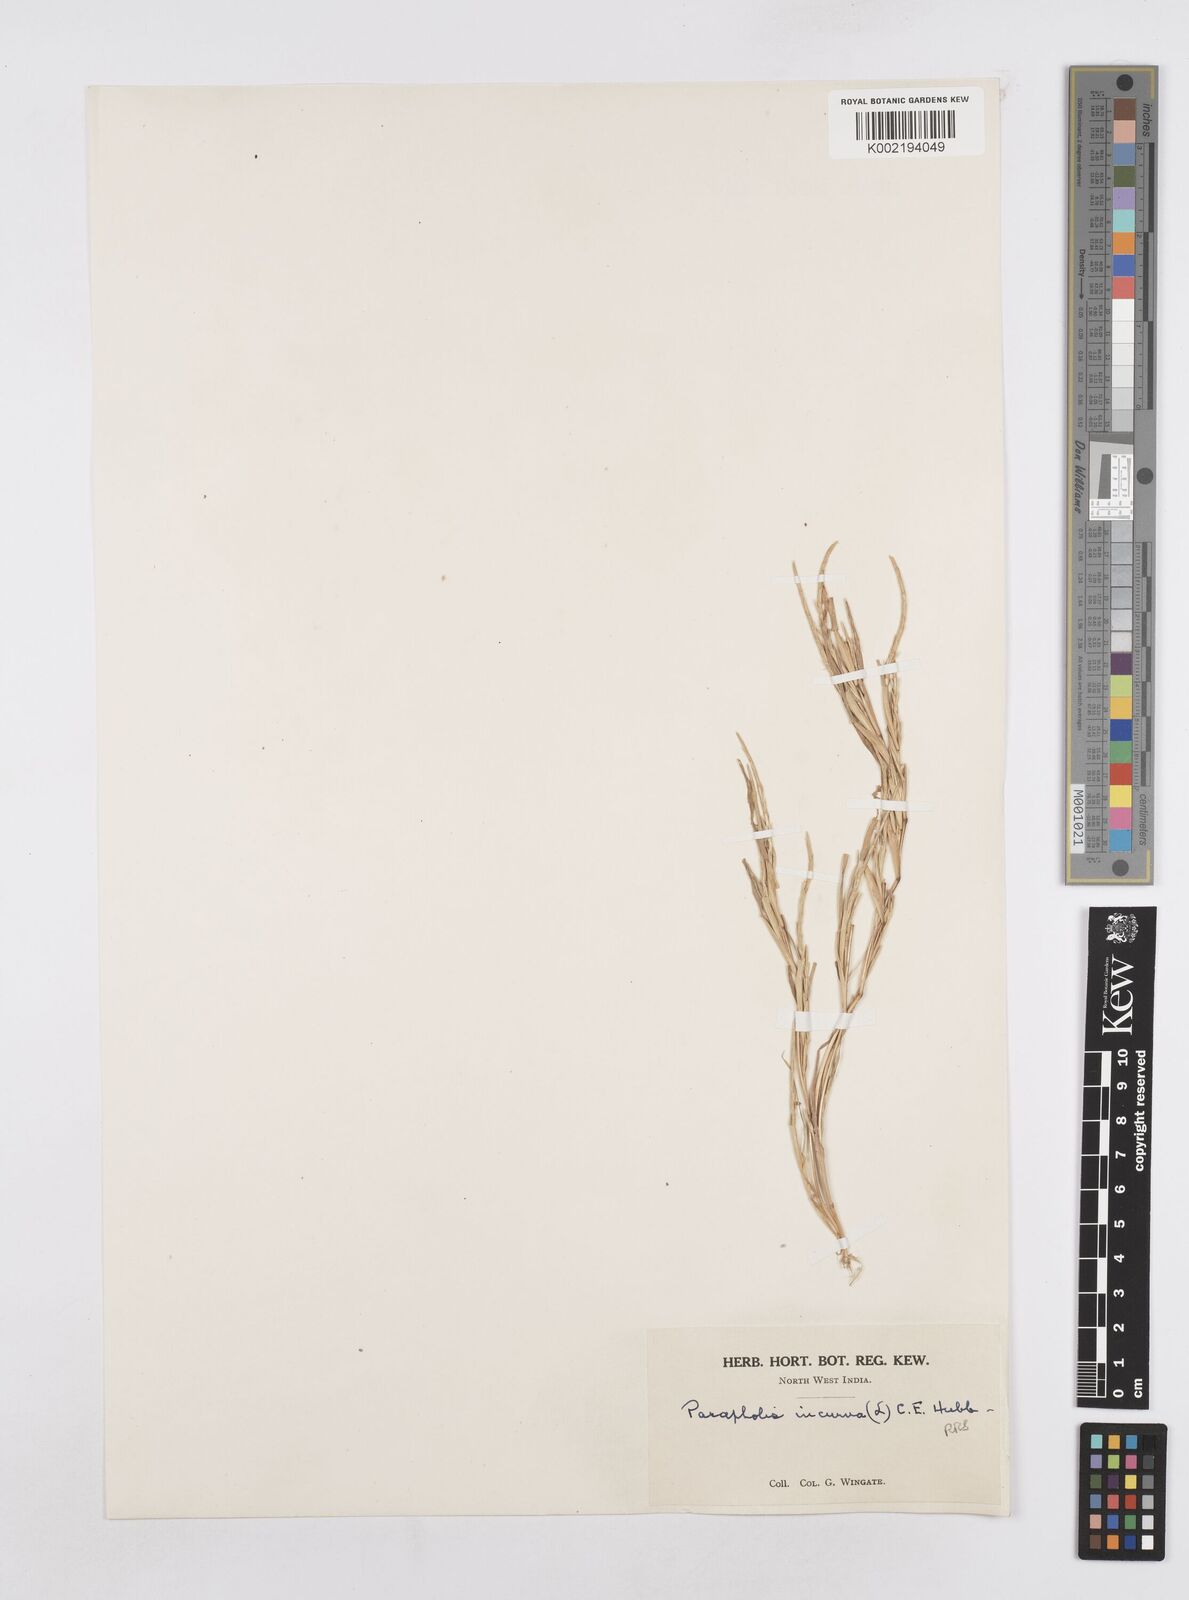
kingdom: Plantae
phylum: Tracheophyta
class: Liliopsida
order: Poales
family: Poaceae
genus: Parapholis
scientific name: Parapholis incurva
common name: Curved sicklegrass
